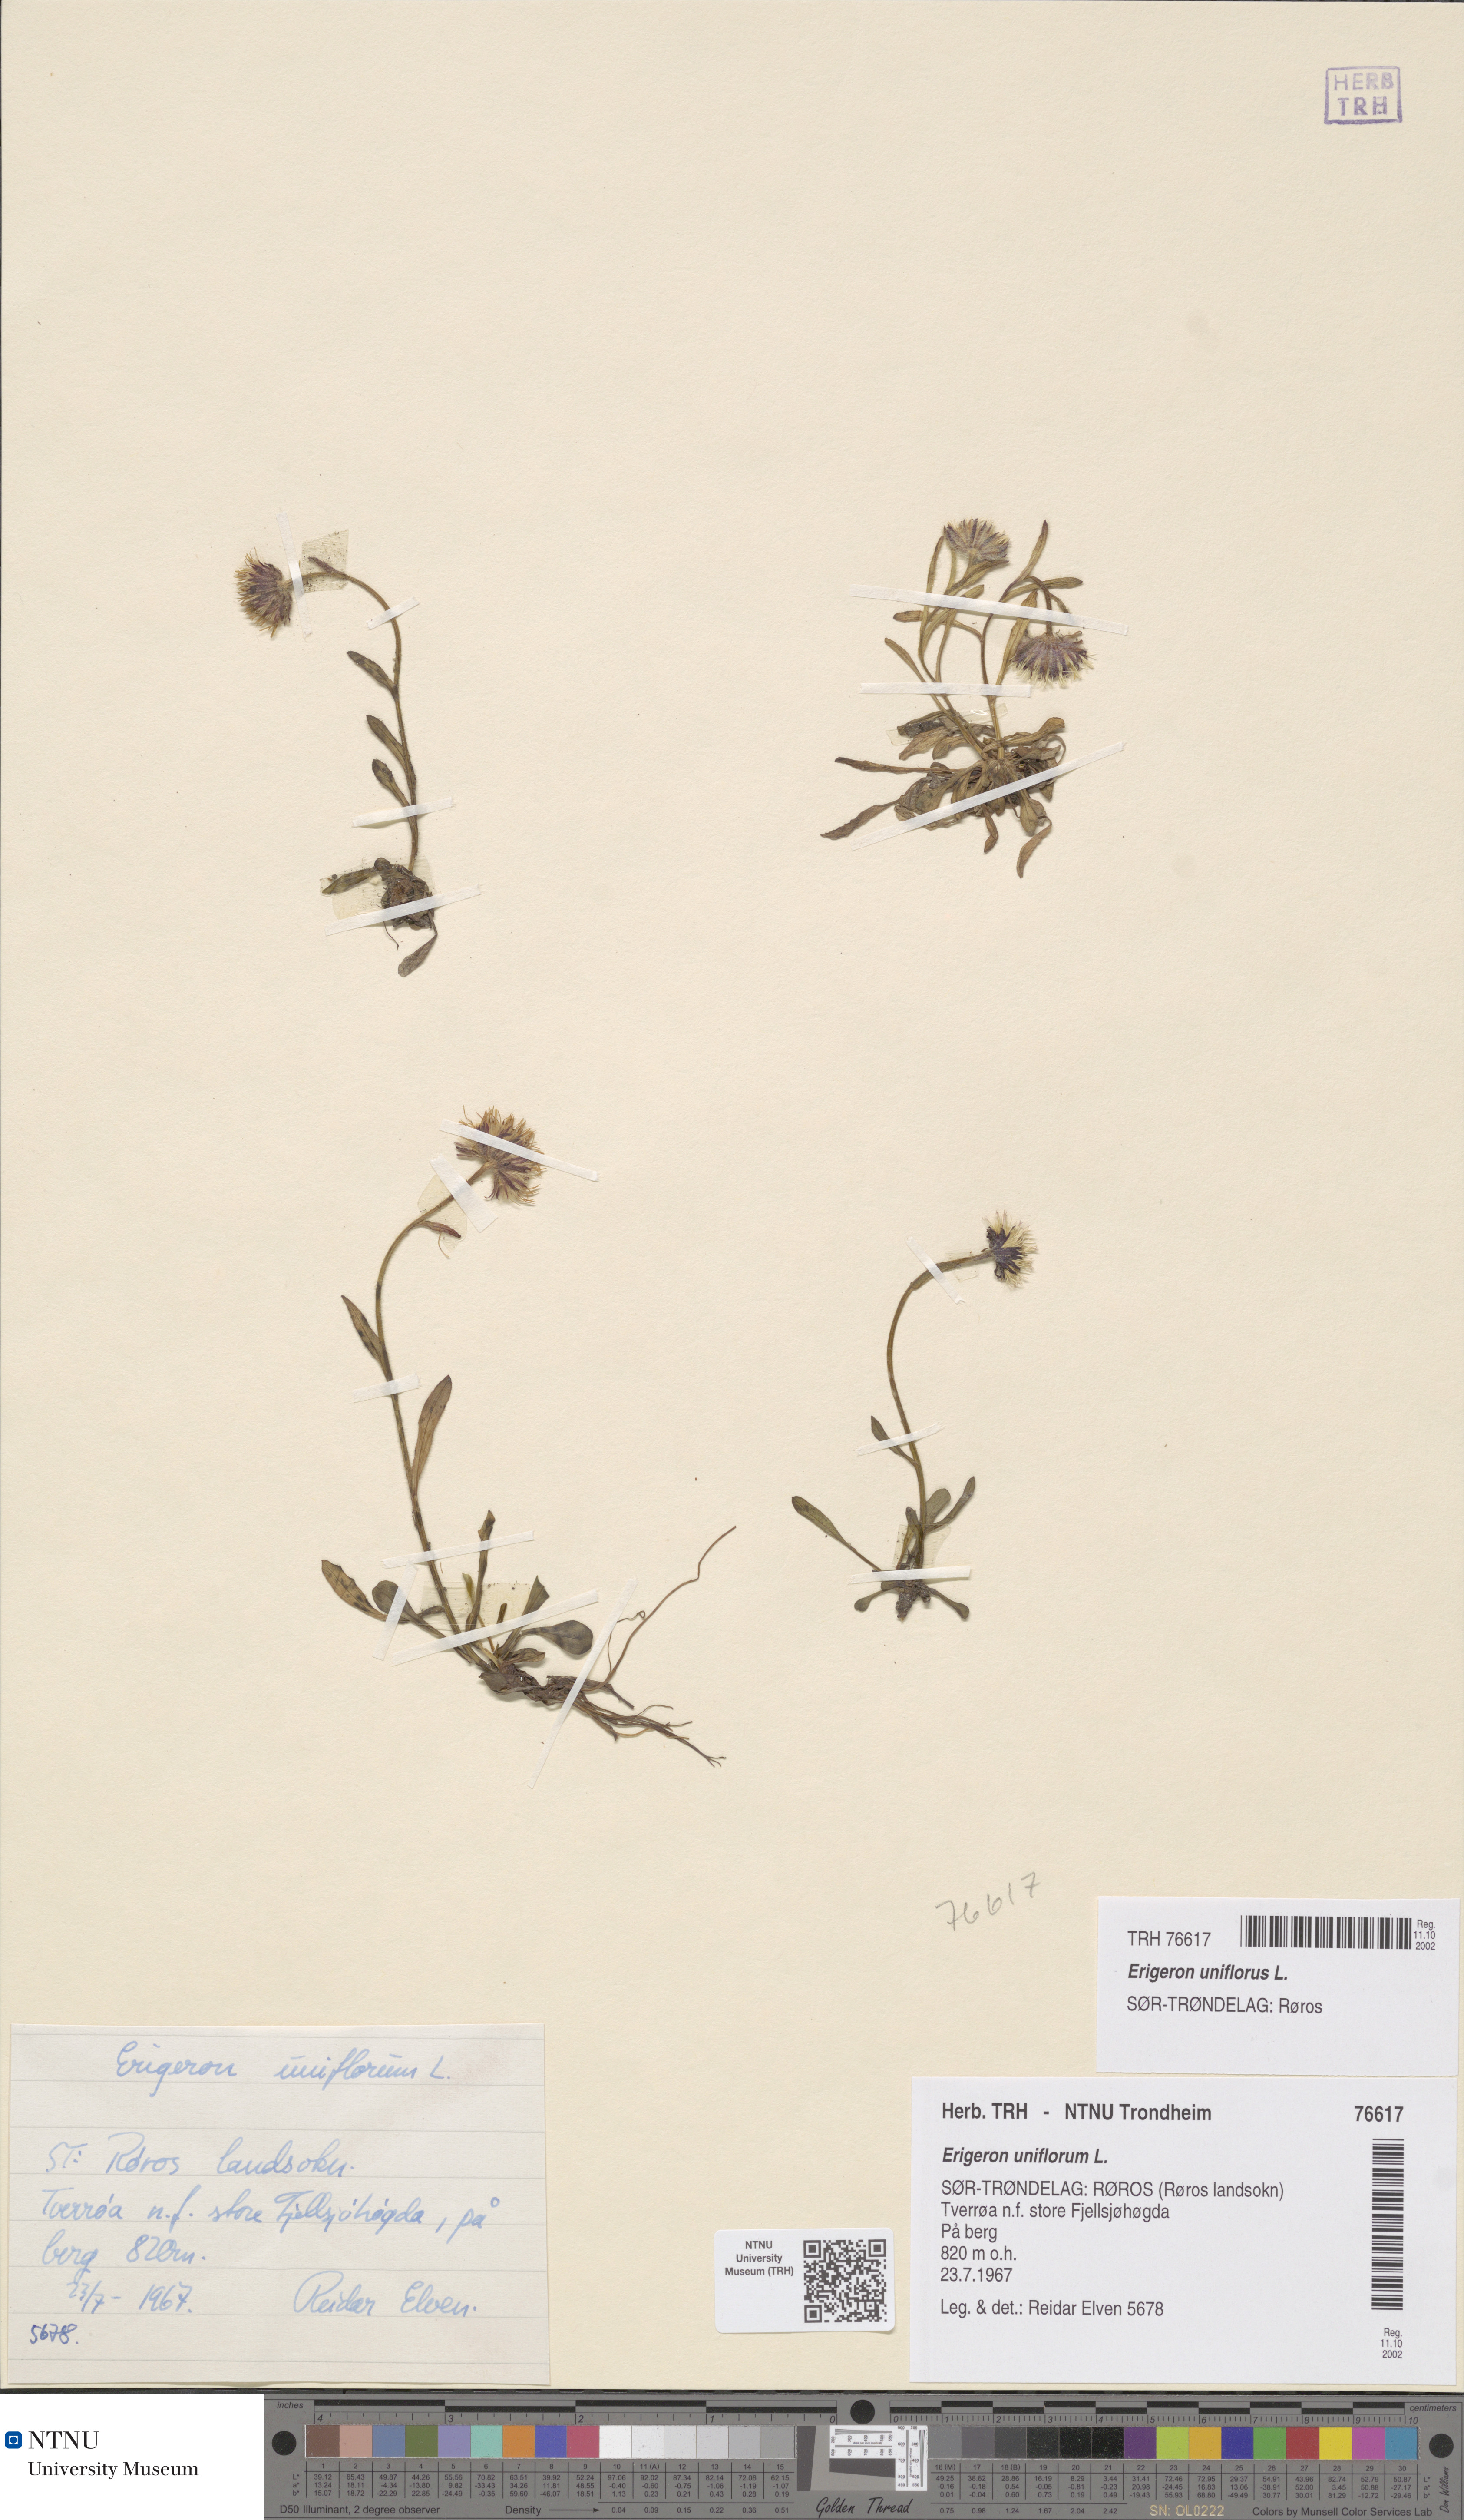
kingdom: Plantae
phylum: Tracheophyta
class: Magnoliopsida
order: Asterales
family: Asteraceae
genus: Erigeron
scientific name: Erigeron uniflorus
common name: Northern daisy
